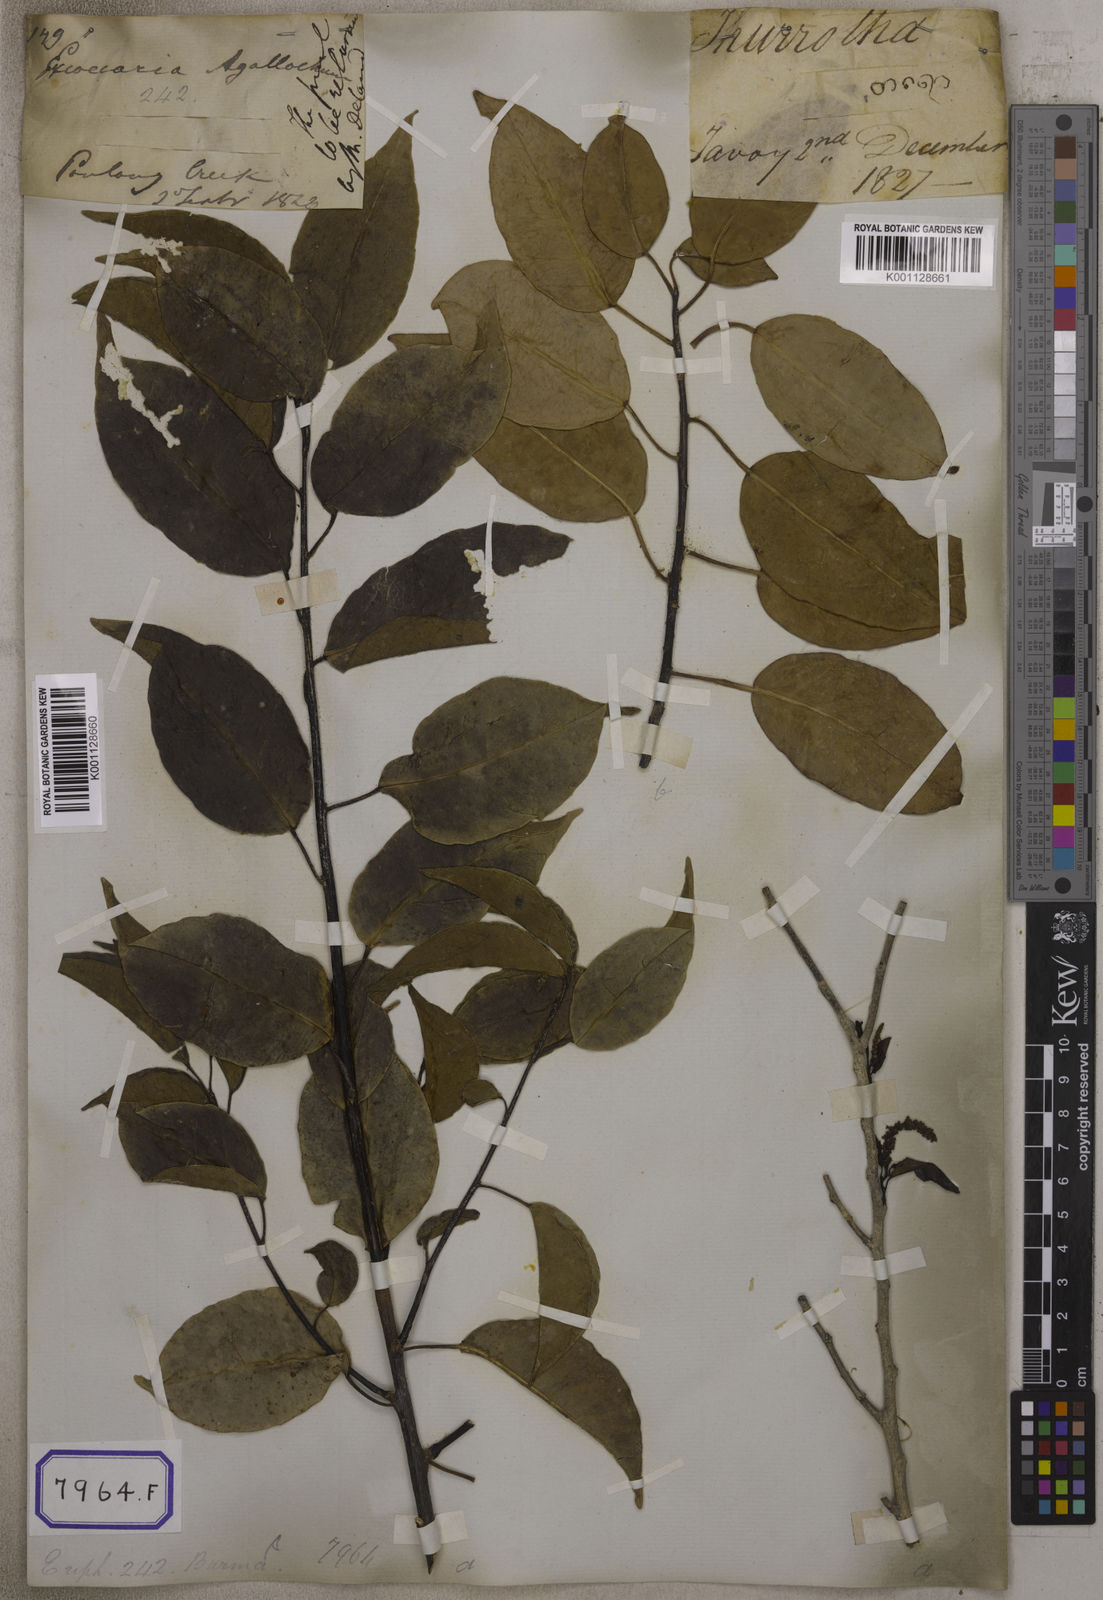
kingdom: Plantae
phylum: Tracheophyta
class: Magnoliopsida
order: Malpighiales
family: Euphorbiaceae
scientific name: Euphorbiaceae
